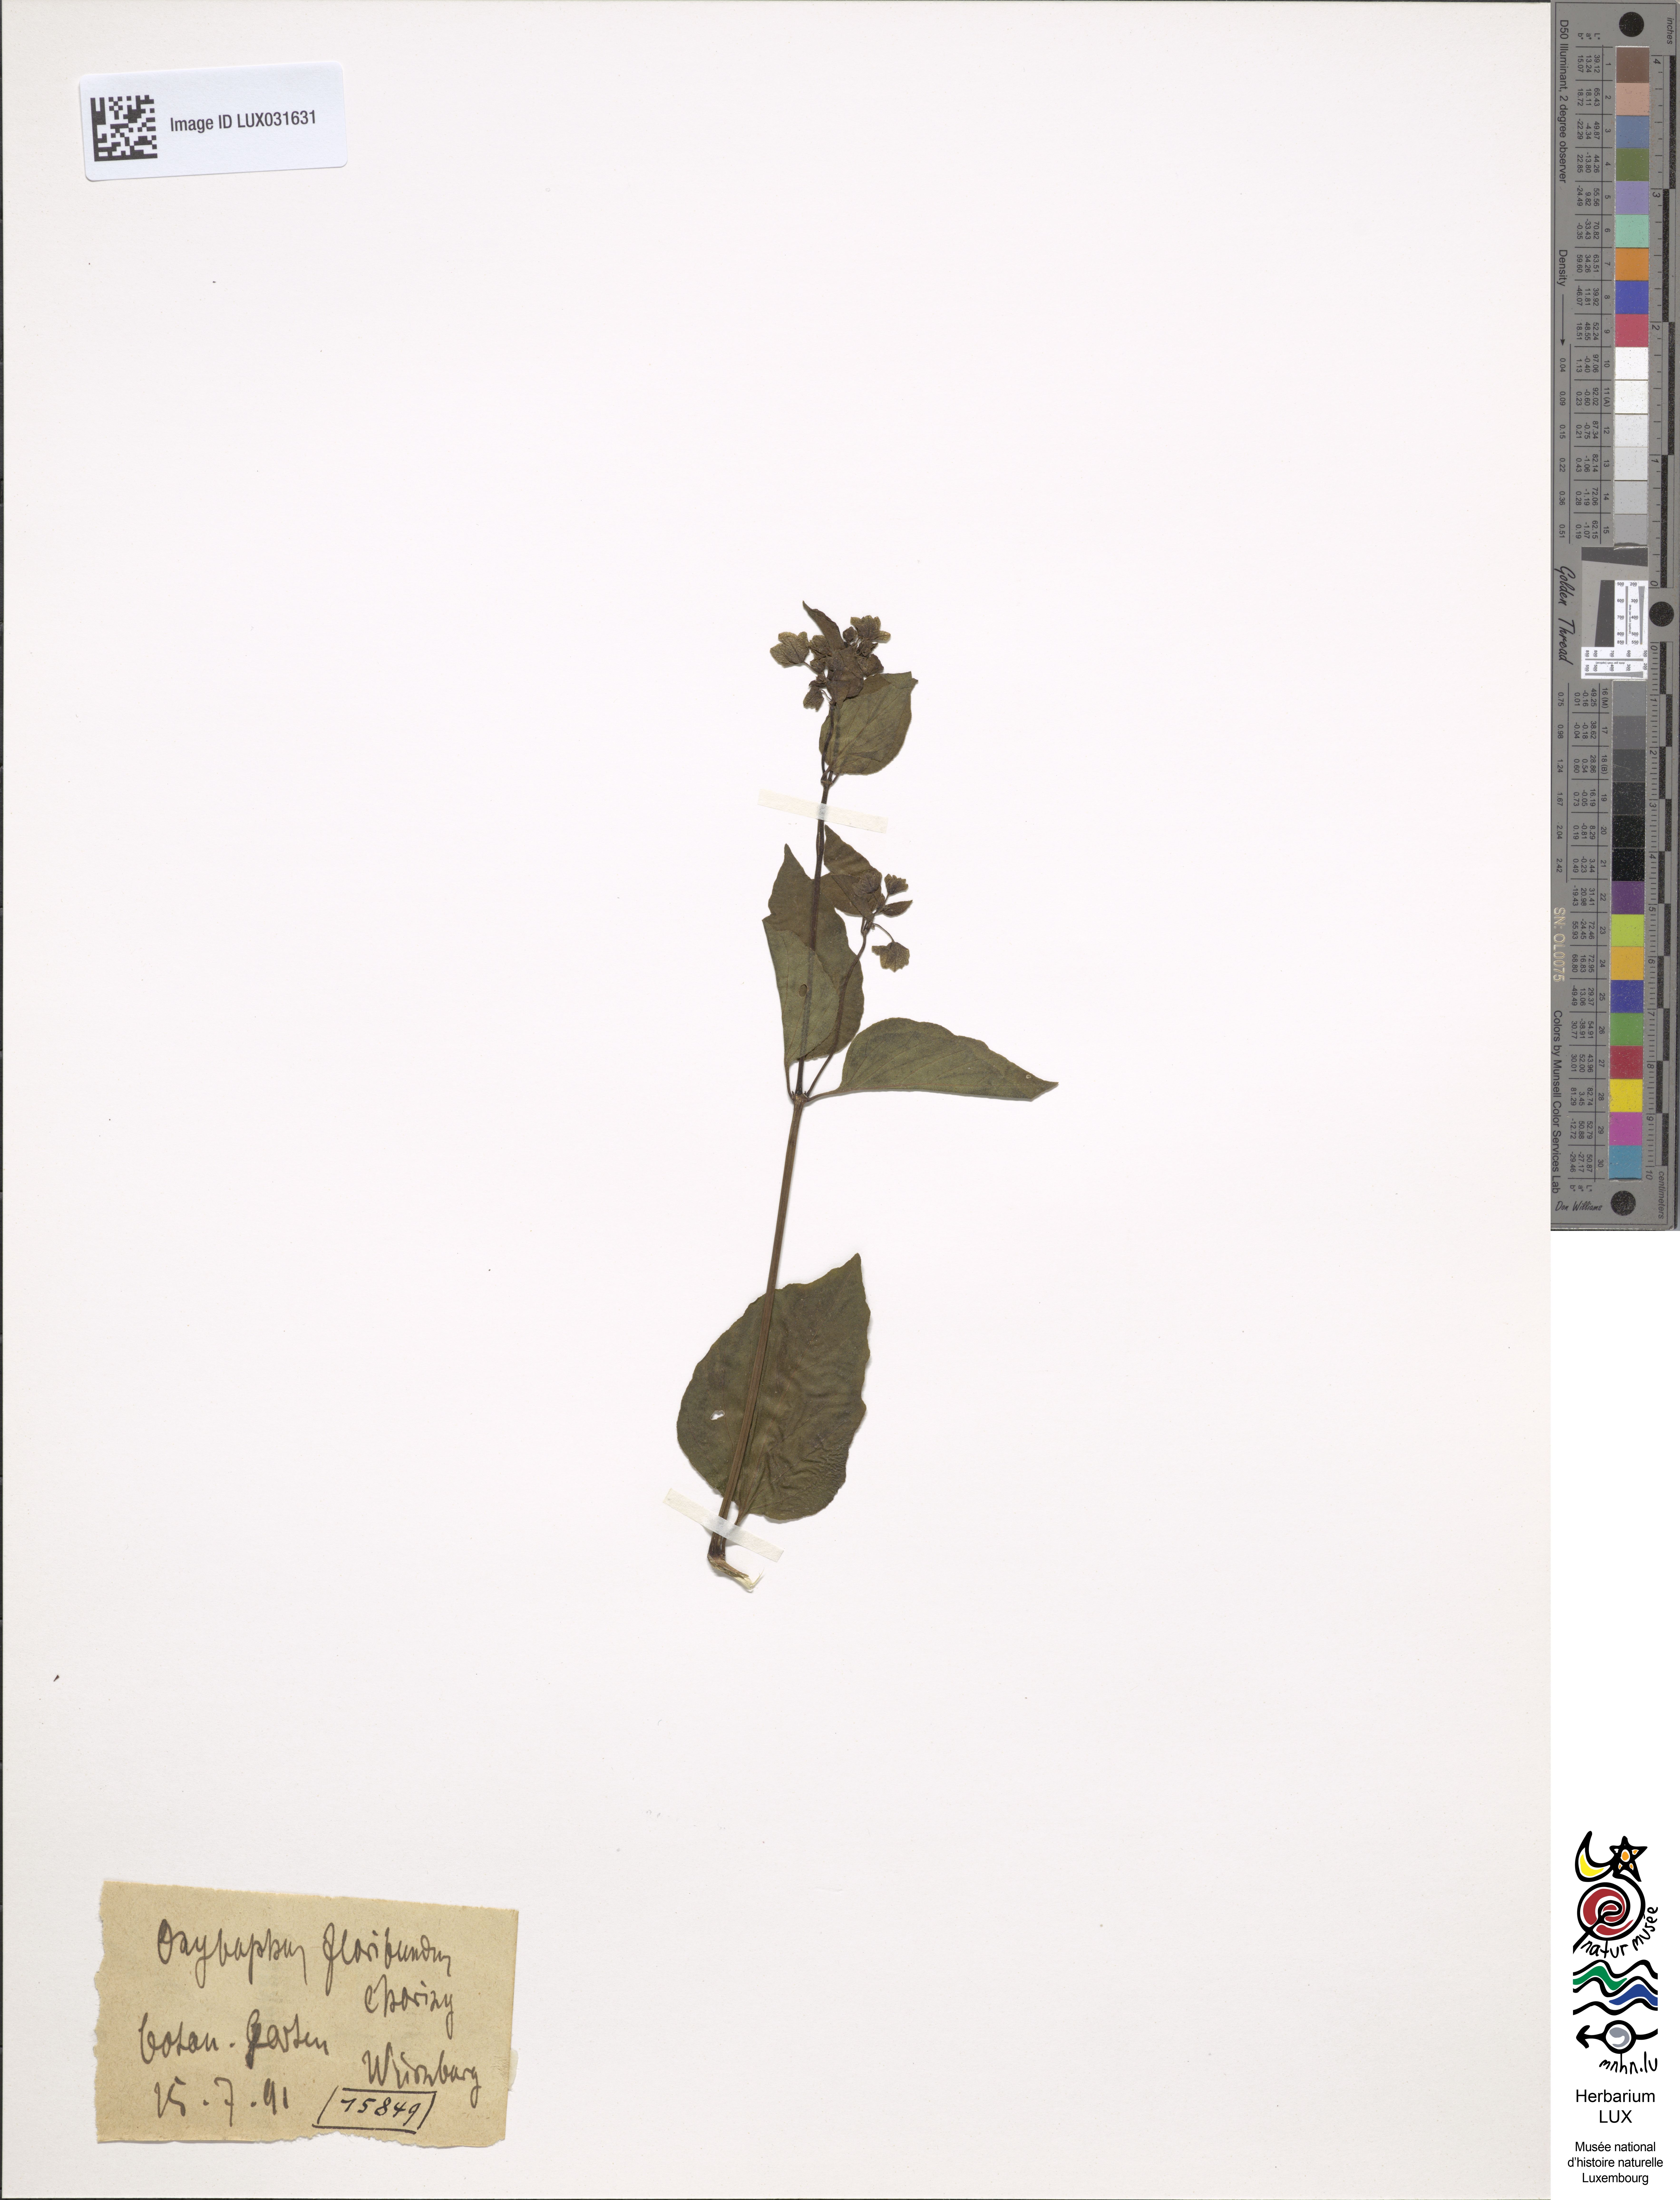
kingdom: Plantae
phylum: Tracheophyta
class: Magnoliopsida
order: Caryophyllales
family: Nyctaginaceae
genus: Mirabilis
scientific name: Mirabilis
